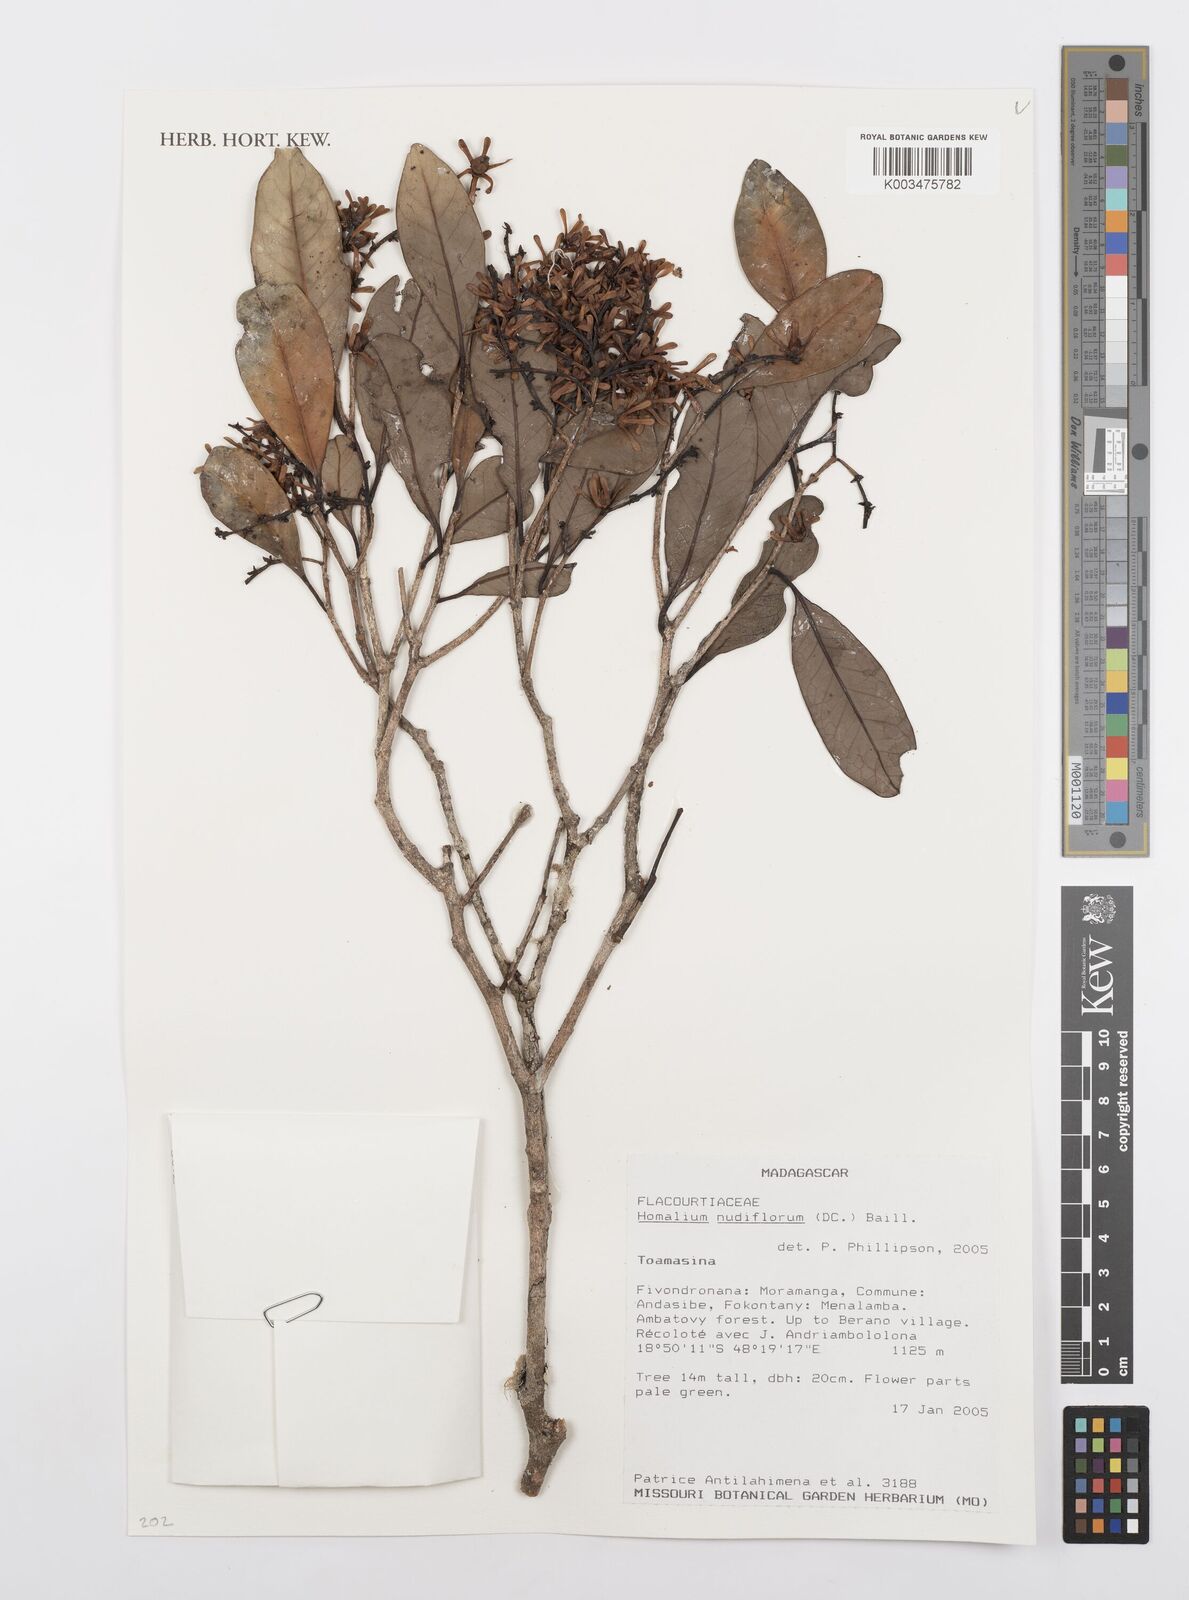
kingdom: Plantae
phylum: Tracheophyta
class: Magnoliopsida
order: Malpighiales
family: Salicaceae
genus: Homalium
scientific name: Homalium nudiflorum
